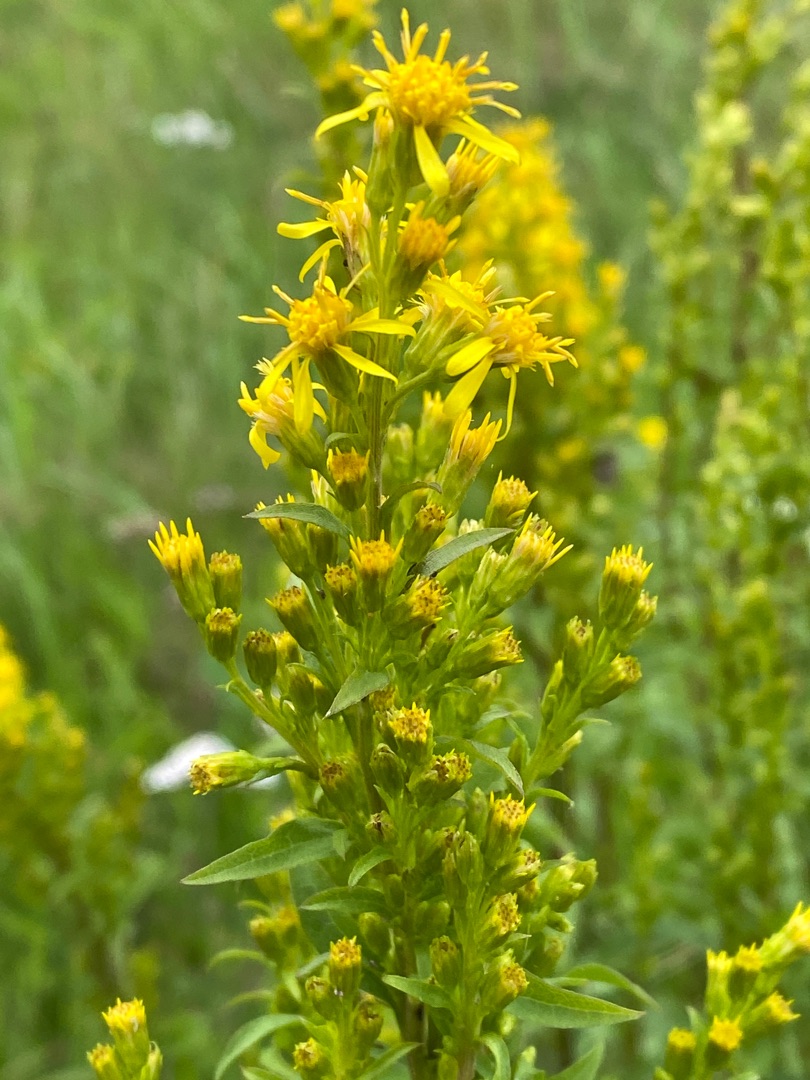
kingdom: Plantae
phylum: Tracheophyta
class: Magnoliopsida
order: Asterales
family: Asteraceae
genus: Solidago
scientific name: Solidago virgaurea
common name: Almindelig gyldenris
